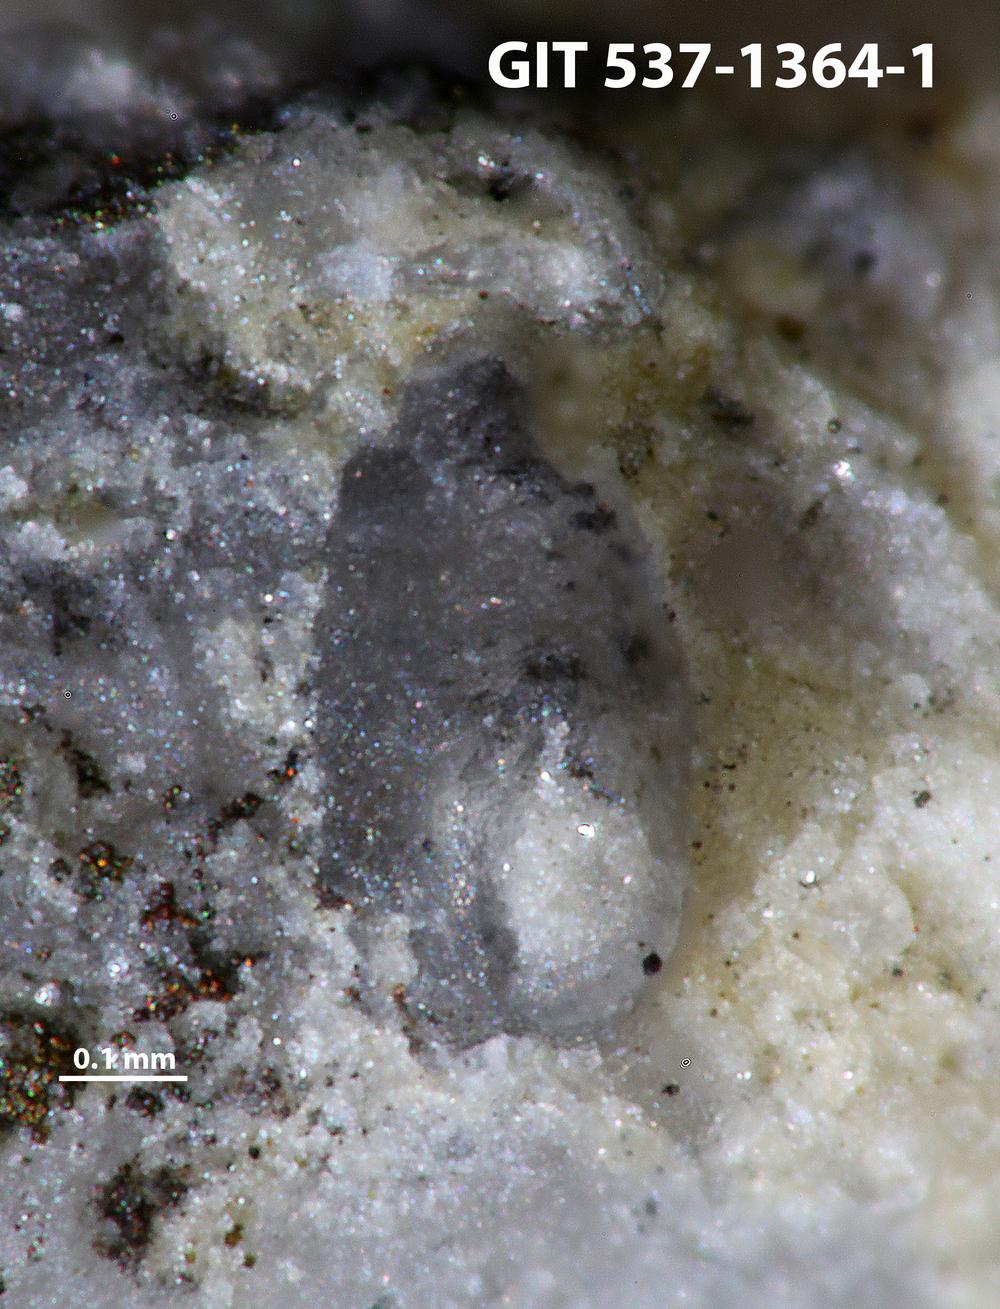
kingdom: Animalia
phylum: Bryozoa
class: Stenolaemata
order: Cyclostomatida
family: Corynotrypidae
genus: Corynotrypa
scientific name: Corynotrypa delicatula
